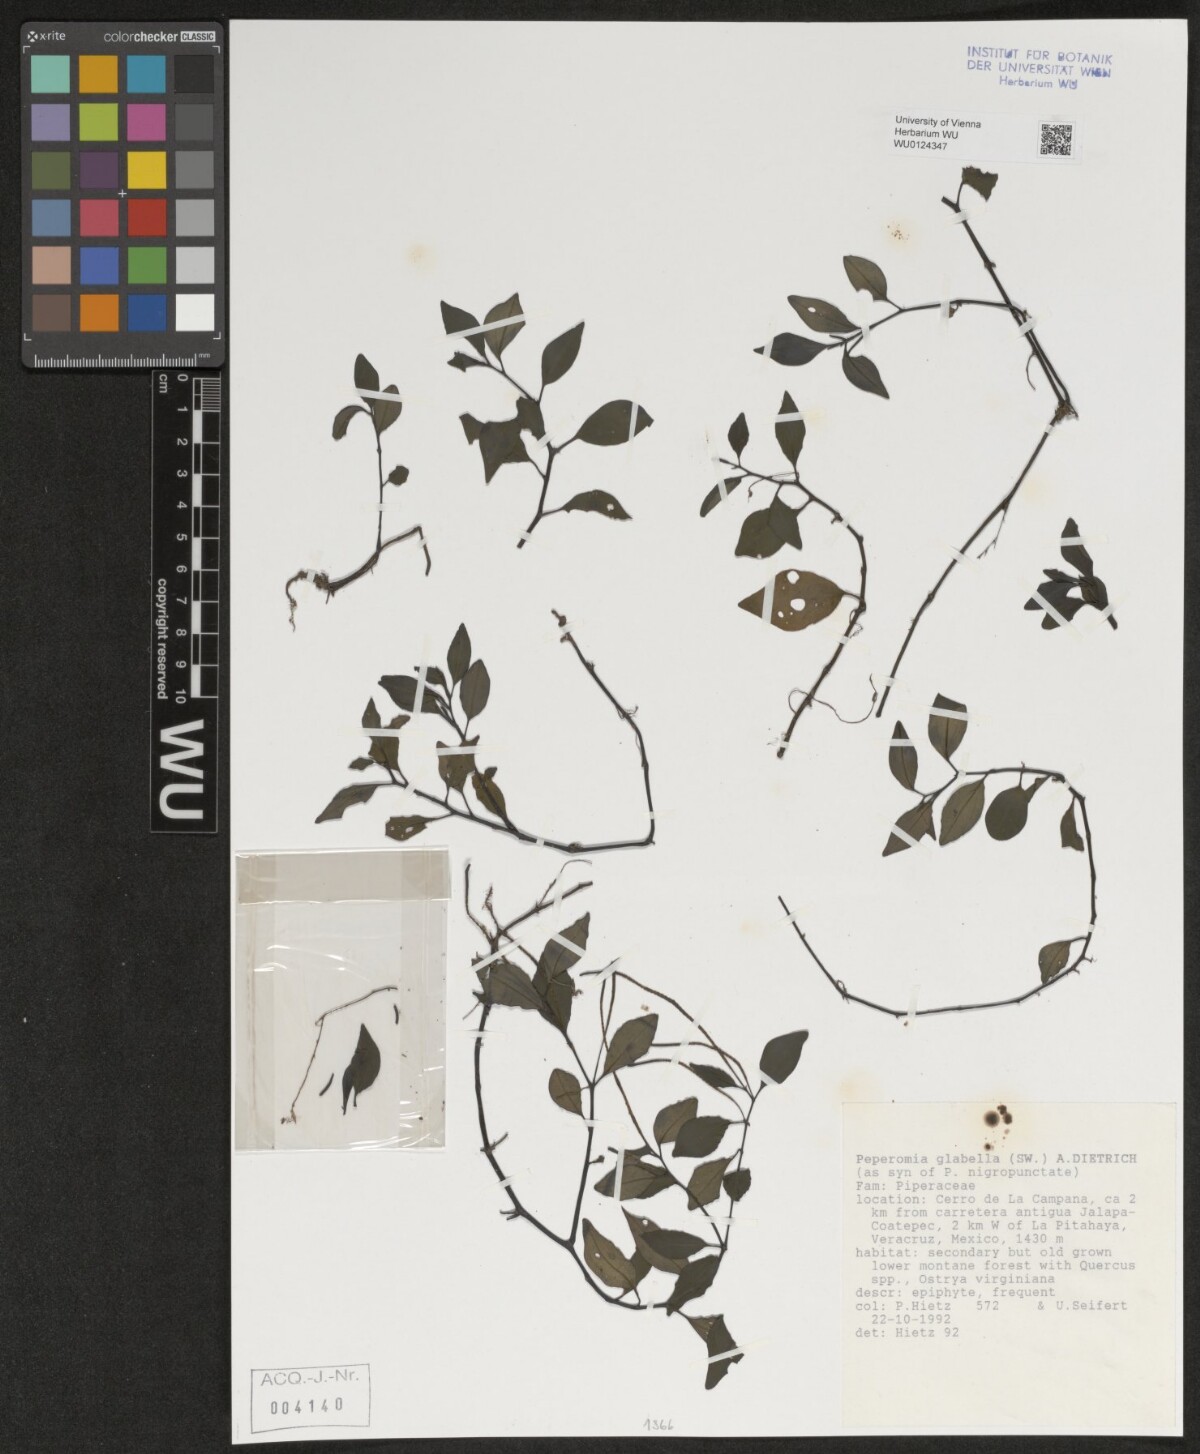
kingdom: Plantae
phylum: Tracheophyta
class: Magnoliopsida
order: Piperales
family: Piperaceae
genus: Peperomia
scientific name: Peperomia glabella
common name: Cypress peperomia
